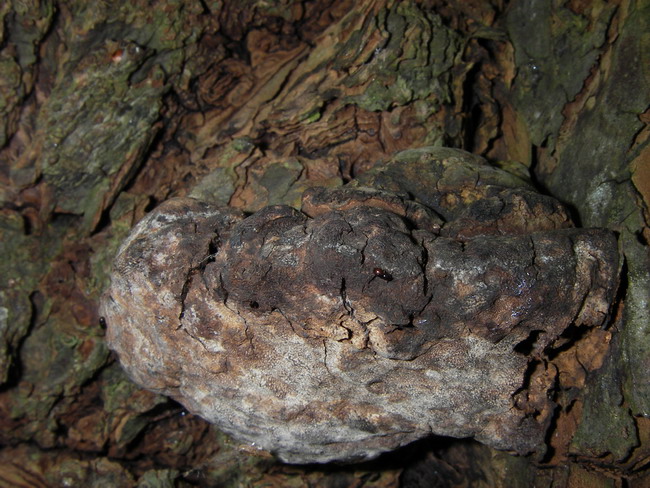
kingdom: Fungi
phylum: Basidiomycota
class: Agaricomycetes
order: Polyporales
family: Polyporaceae
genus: Ganoderma
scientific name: Ganoderma adspersum
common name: grov lakporesvamp
